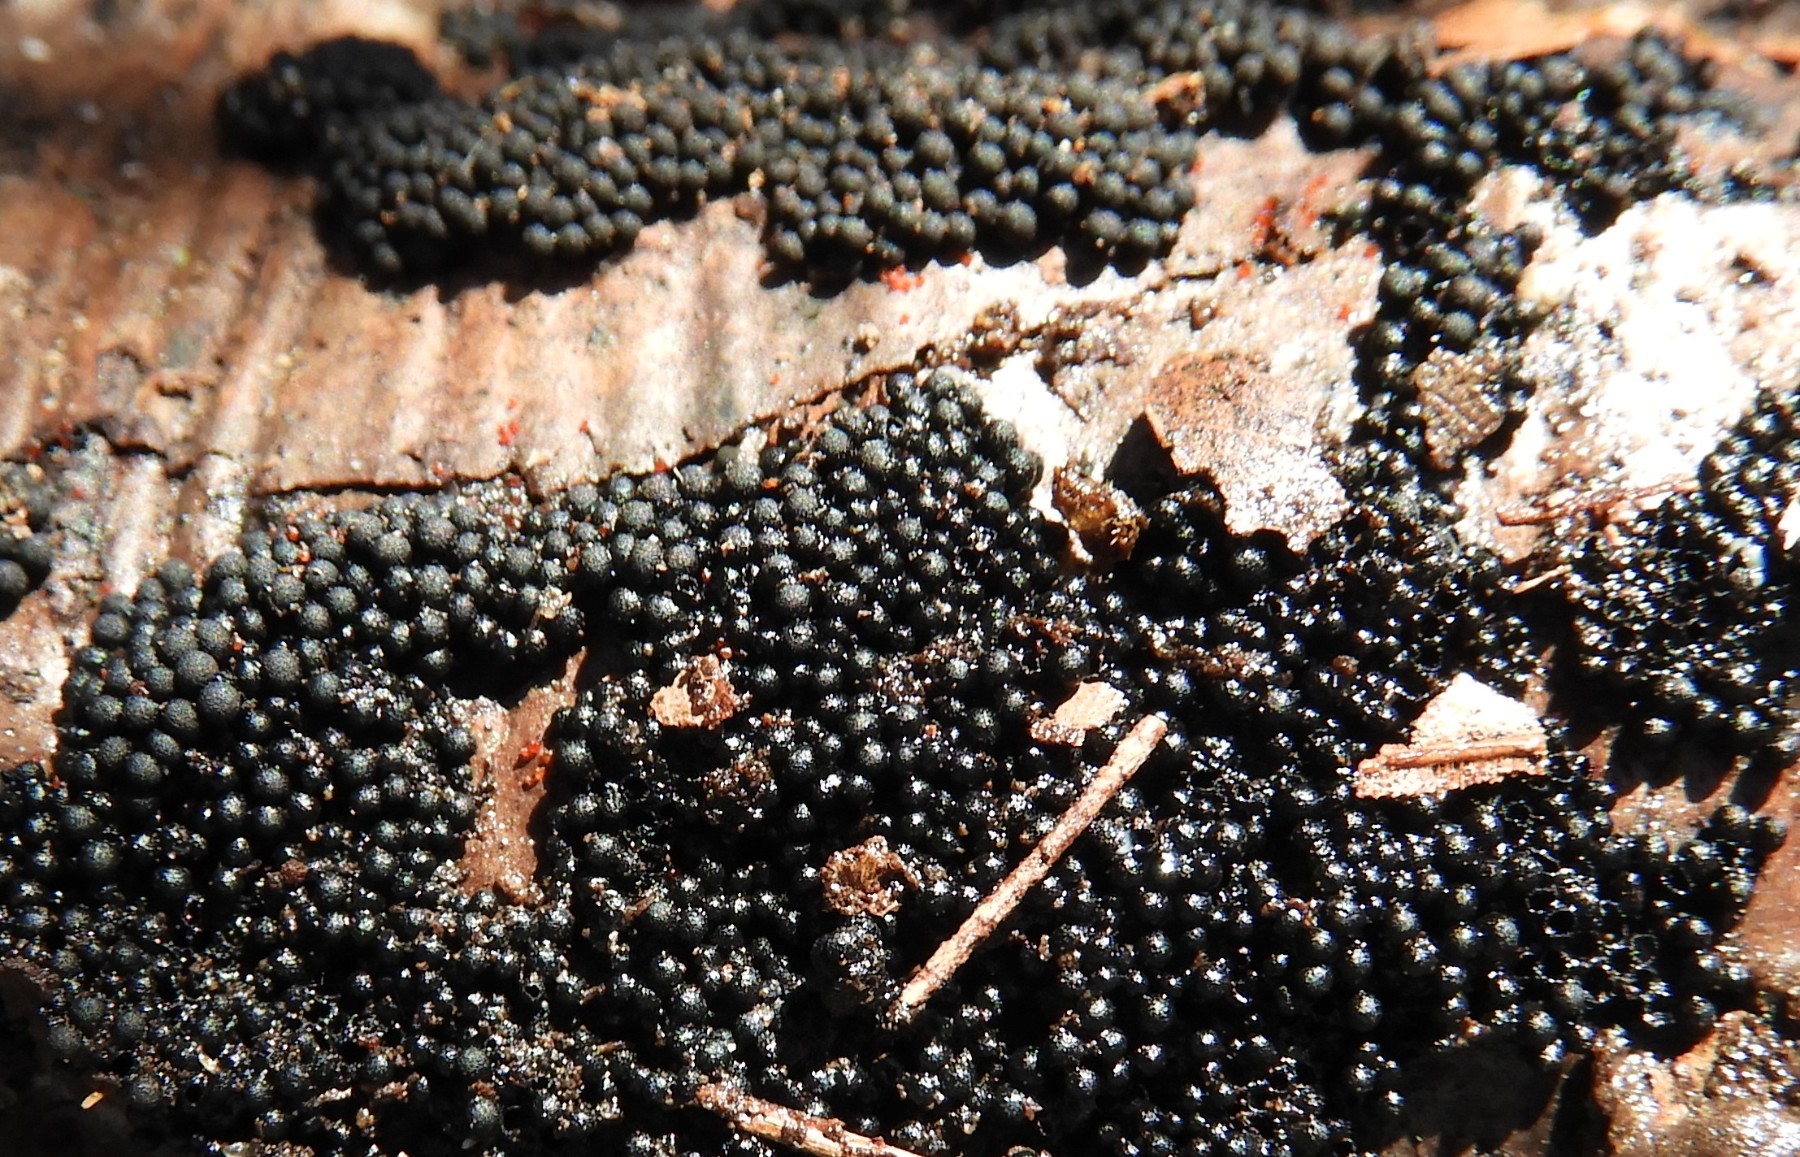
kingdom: Fungi
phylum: Ascomycota
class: Sordariomycetes
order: Sordariales
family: Helminthosphaeriaceae
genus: Ruzenia
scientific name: Ruzenia spermoides
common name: glat børstekerne
